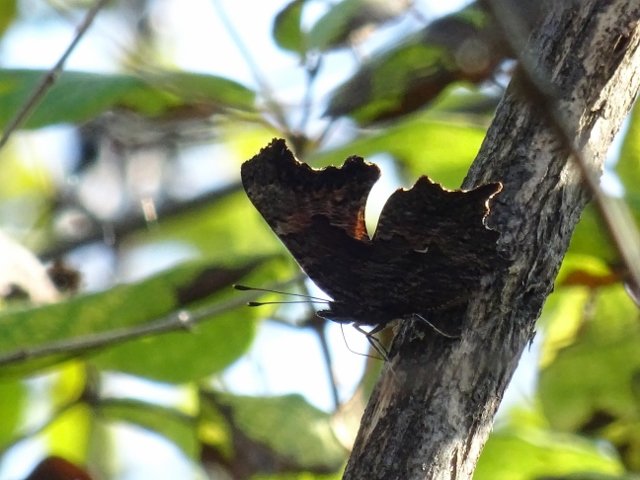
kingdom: Animalia
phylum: Arthropoda
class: Insecta
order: Lepidoptera
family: Nymphalidae
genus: Polygonia
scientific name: Polygonia progne
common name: Gray Comma
